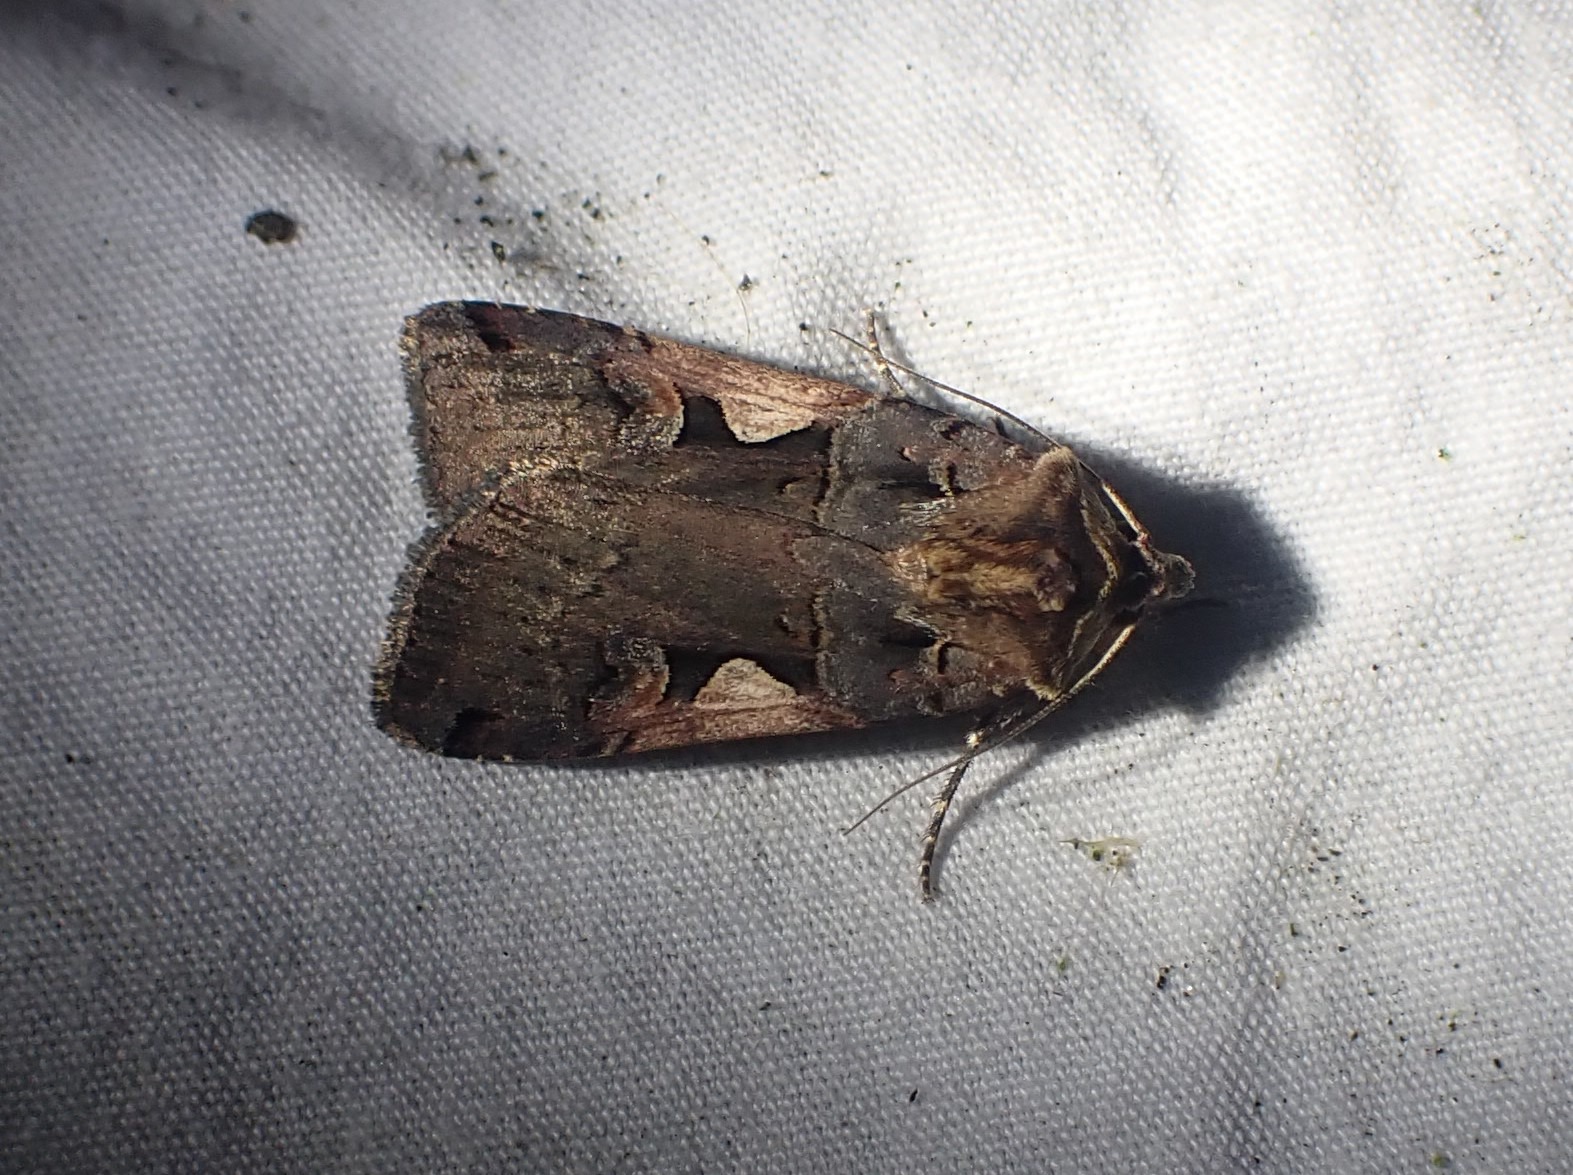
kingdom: Animalia
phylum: Arthropoda
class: Insecta
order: Lepidoptera
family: Noctuidae
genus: Xestia
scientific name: Xestia c-nigrum
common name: Det sorte c
